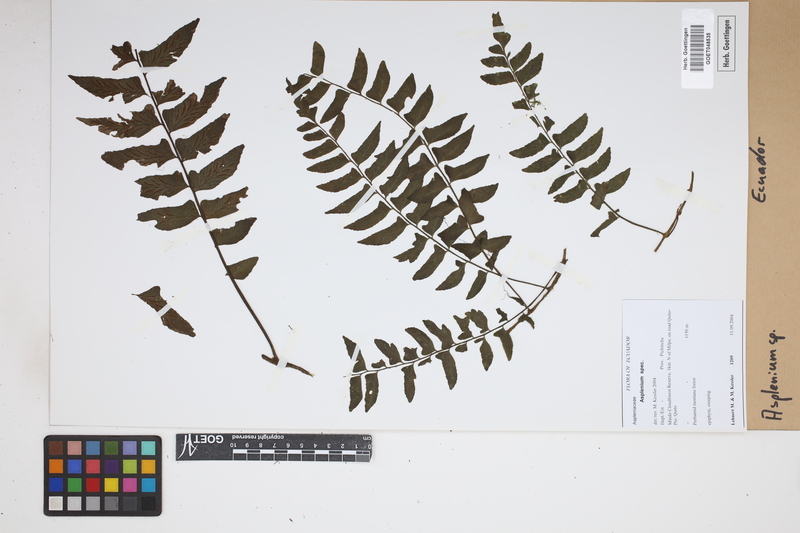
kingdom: Plantae
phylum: Tracheophyta
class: Polypodiopsida
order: Polypodiales
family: Aspleniaceae
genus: Asplenium
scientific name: Asplenium
